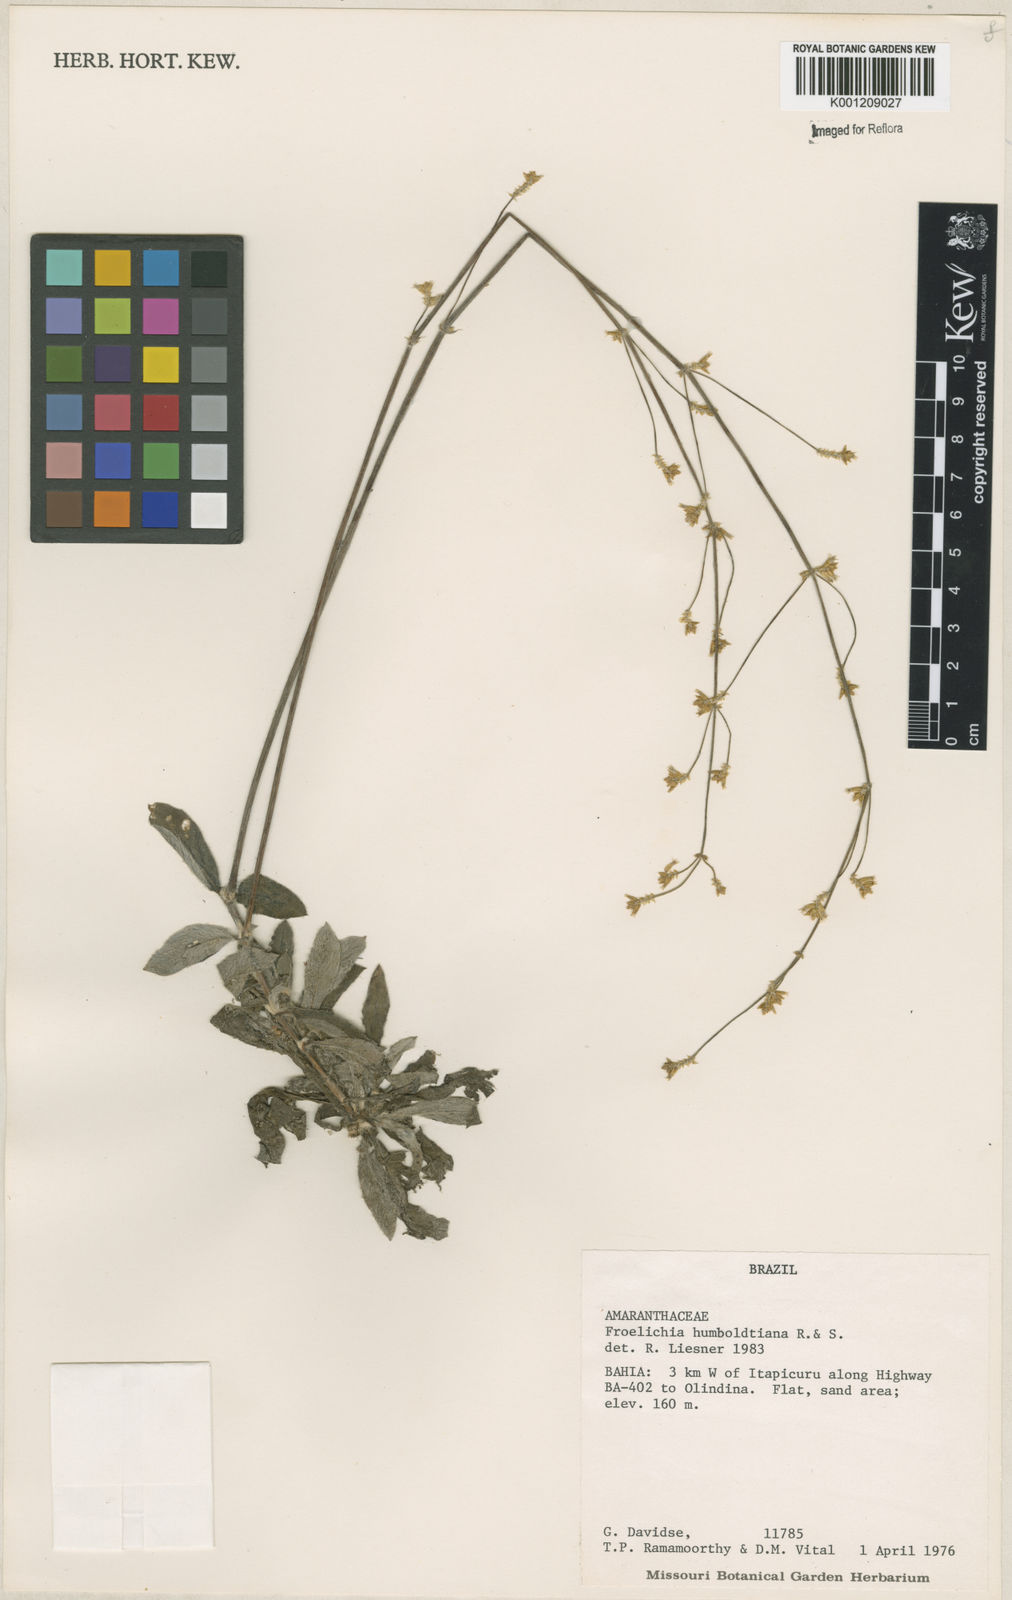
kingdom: Plantae
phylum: Tracheophyta
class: Magnoliopsida
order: Caryophyllales
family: Amaranthaceae
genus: Froelichia
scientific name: Froelichia humboldtiana
